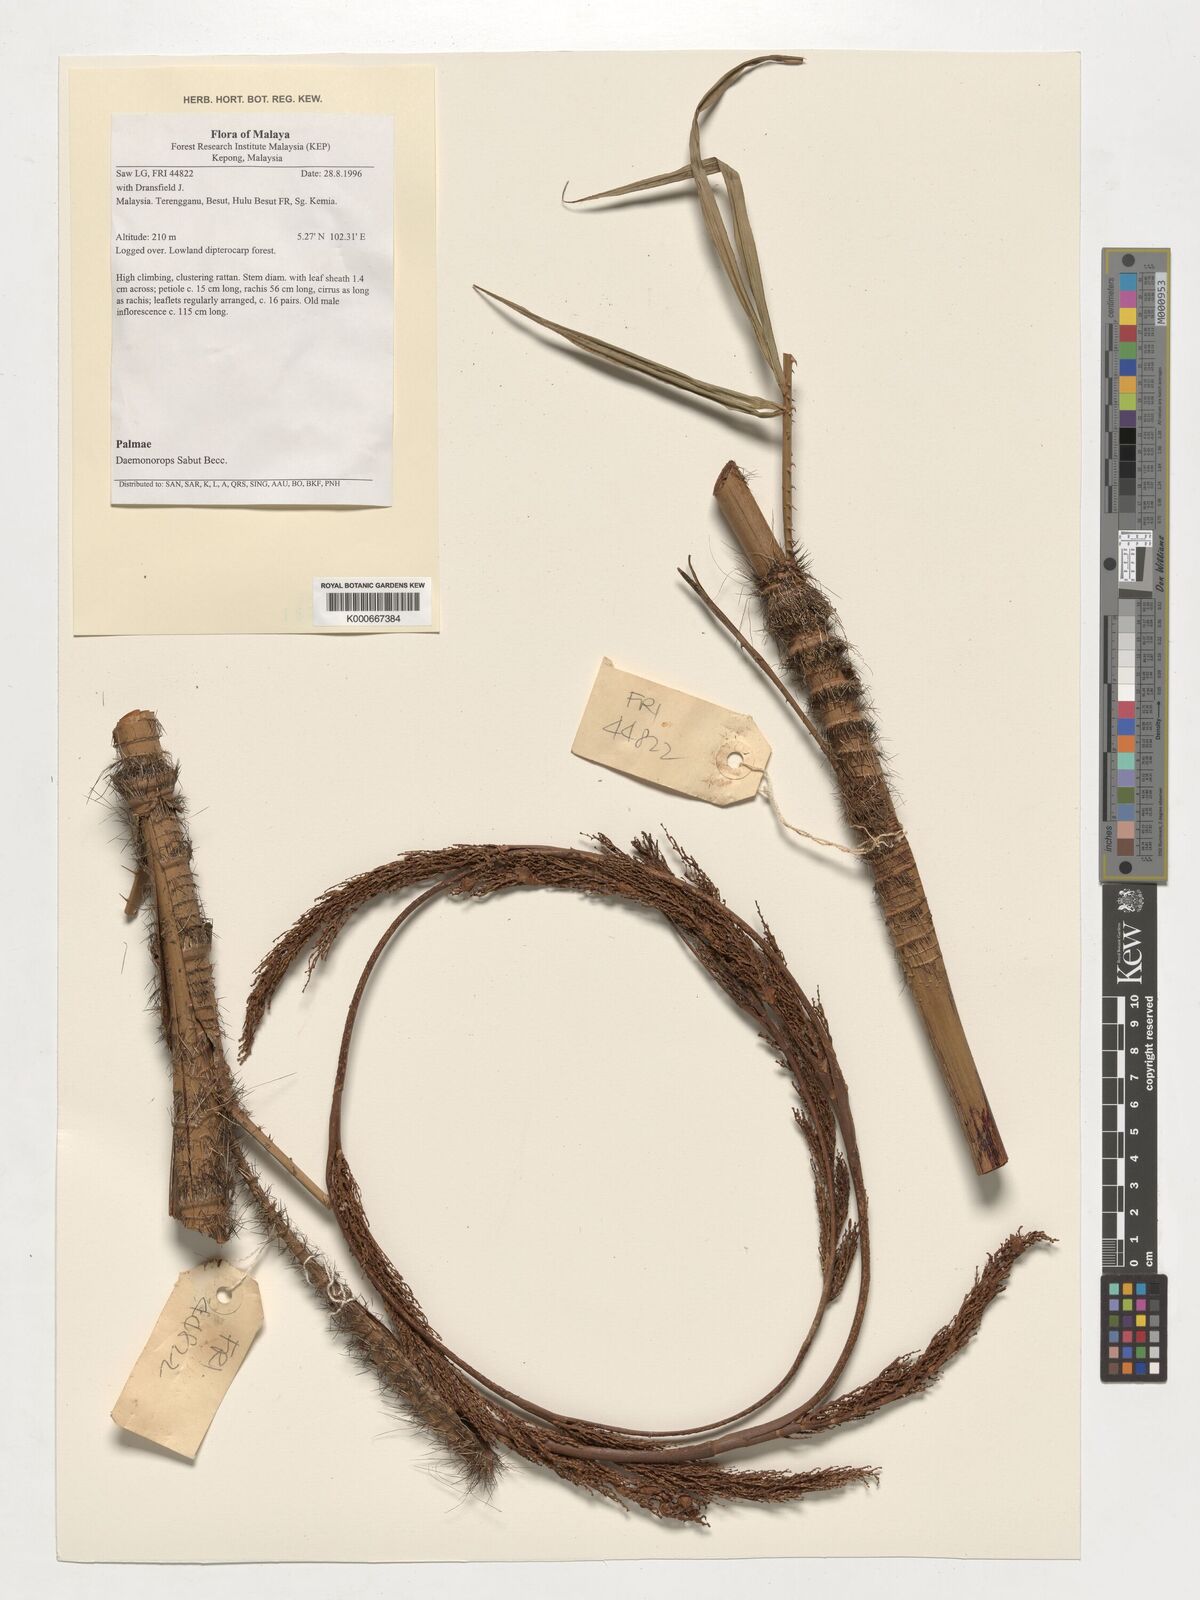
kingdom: Plantae
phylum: Tracheophyta
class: Liliopsida
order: Arecales
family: Arecaceae
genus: Calamus
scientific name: Calamus crinitus
